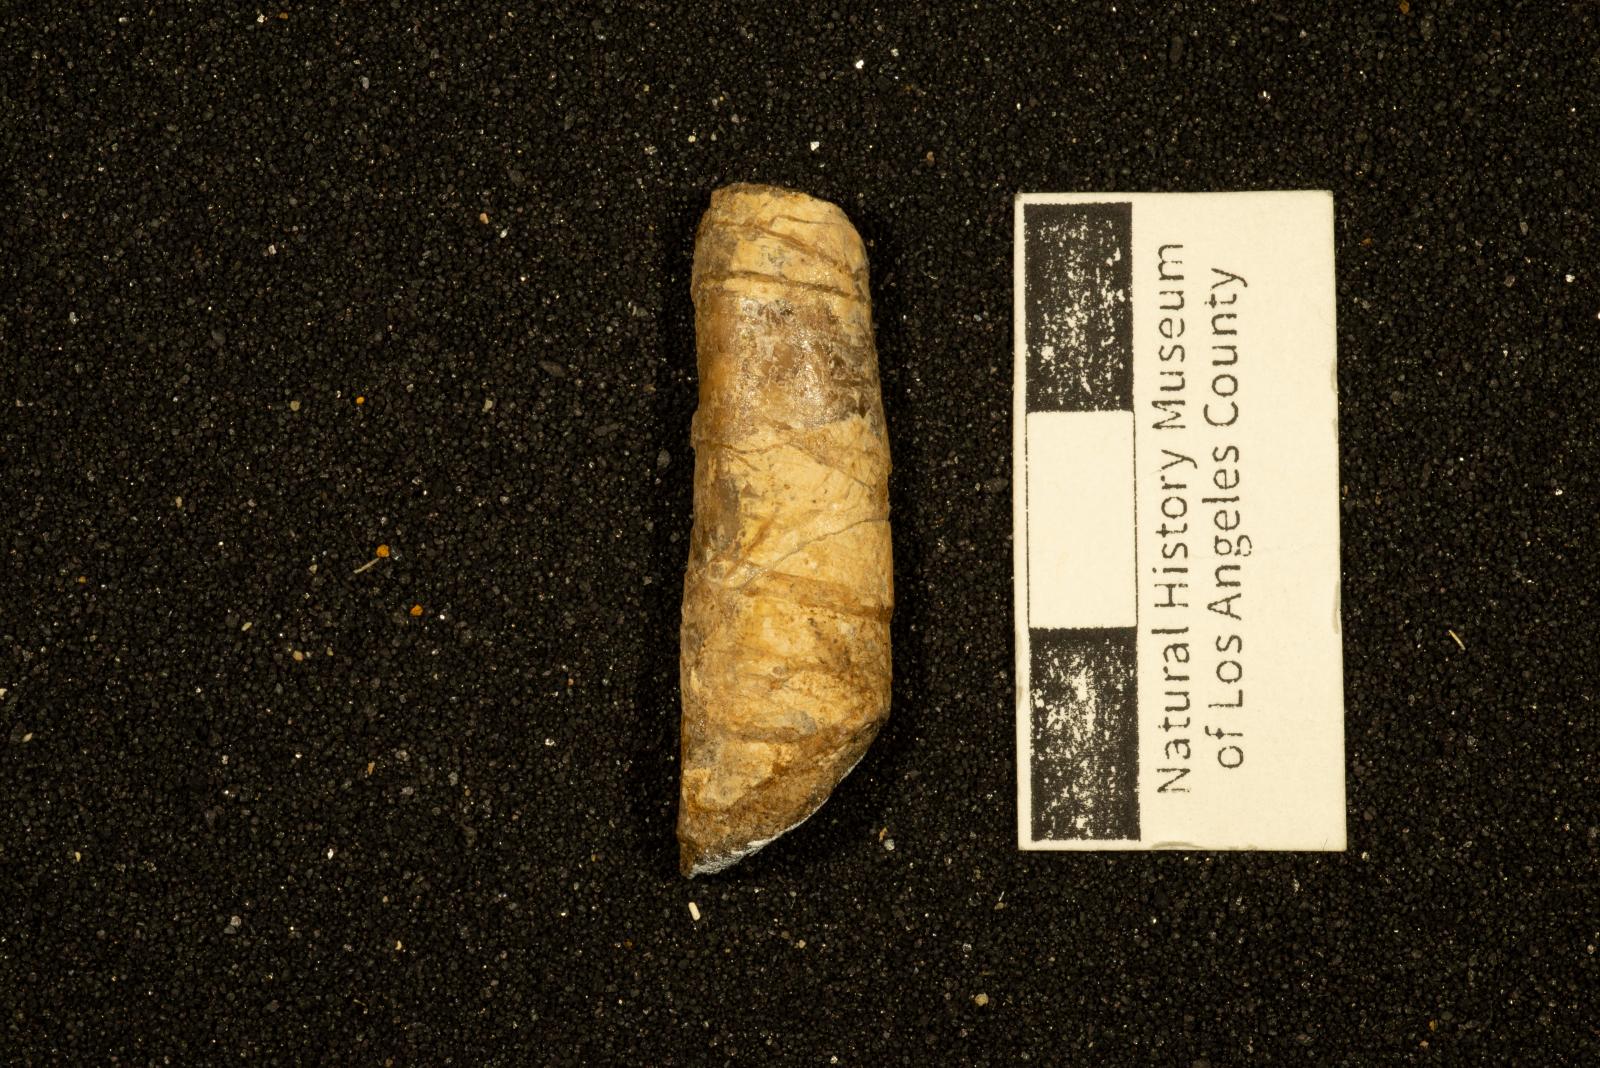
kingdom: Animalia
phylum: Mollusca
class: Cephalopoda
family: Baculitidae
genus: Baculites
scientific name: Baculites inornatus
